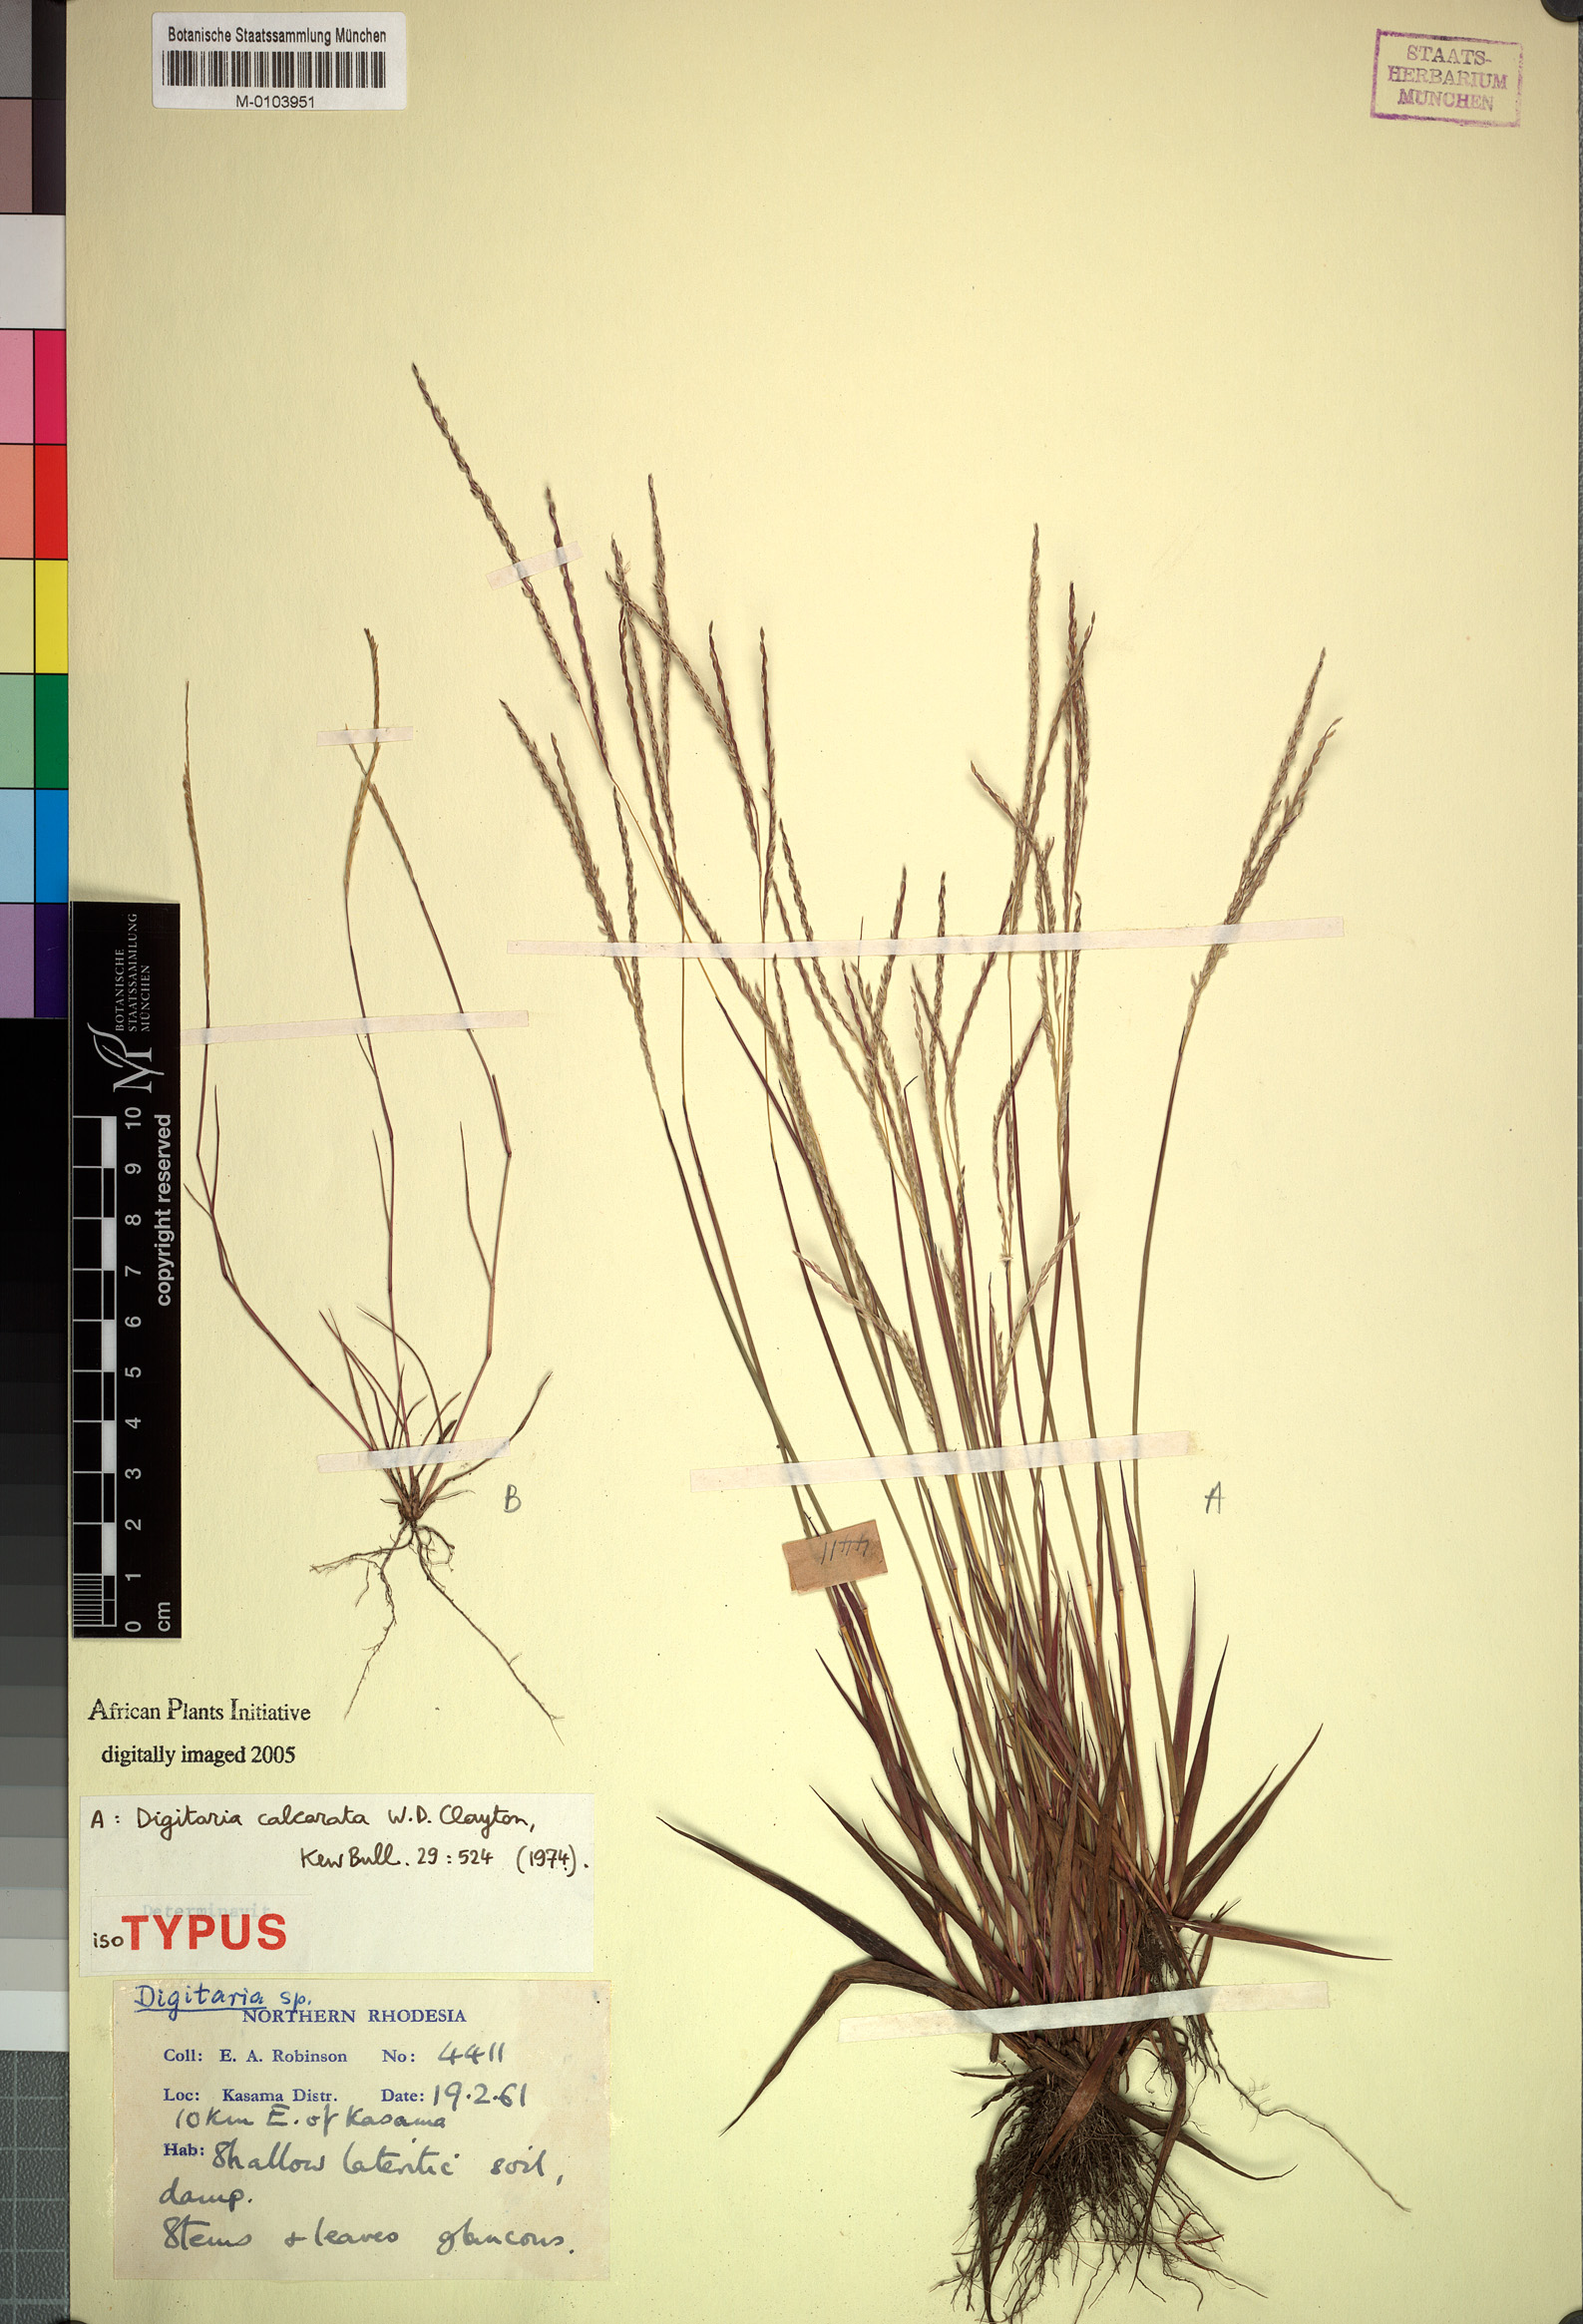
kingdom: Plantae
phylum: Tracheophyta
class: Liliopsida
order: Poales
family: Poaceae
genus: Digitaria
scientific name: Digitaria calcarata
